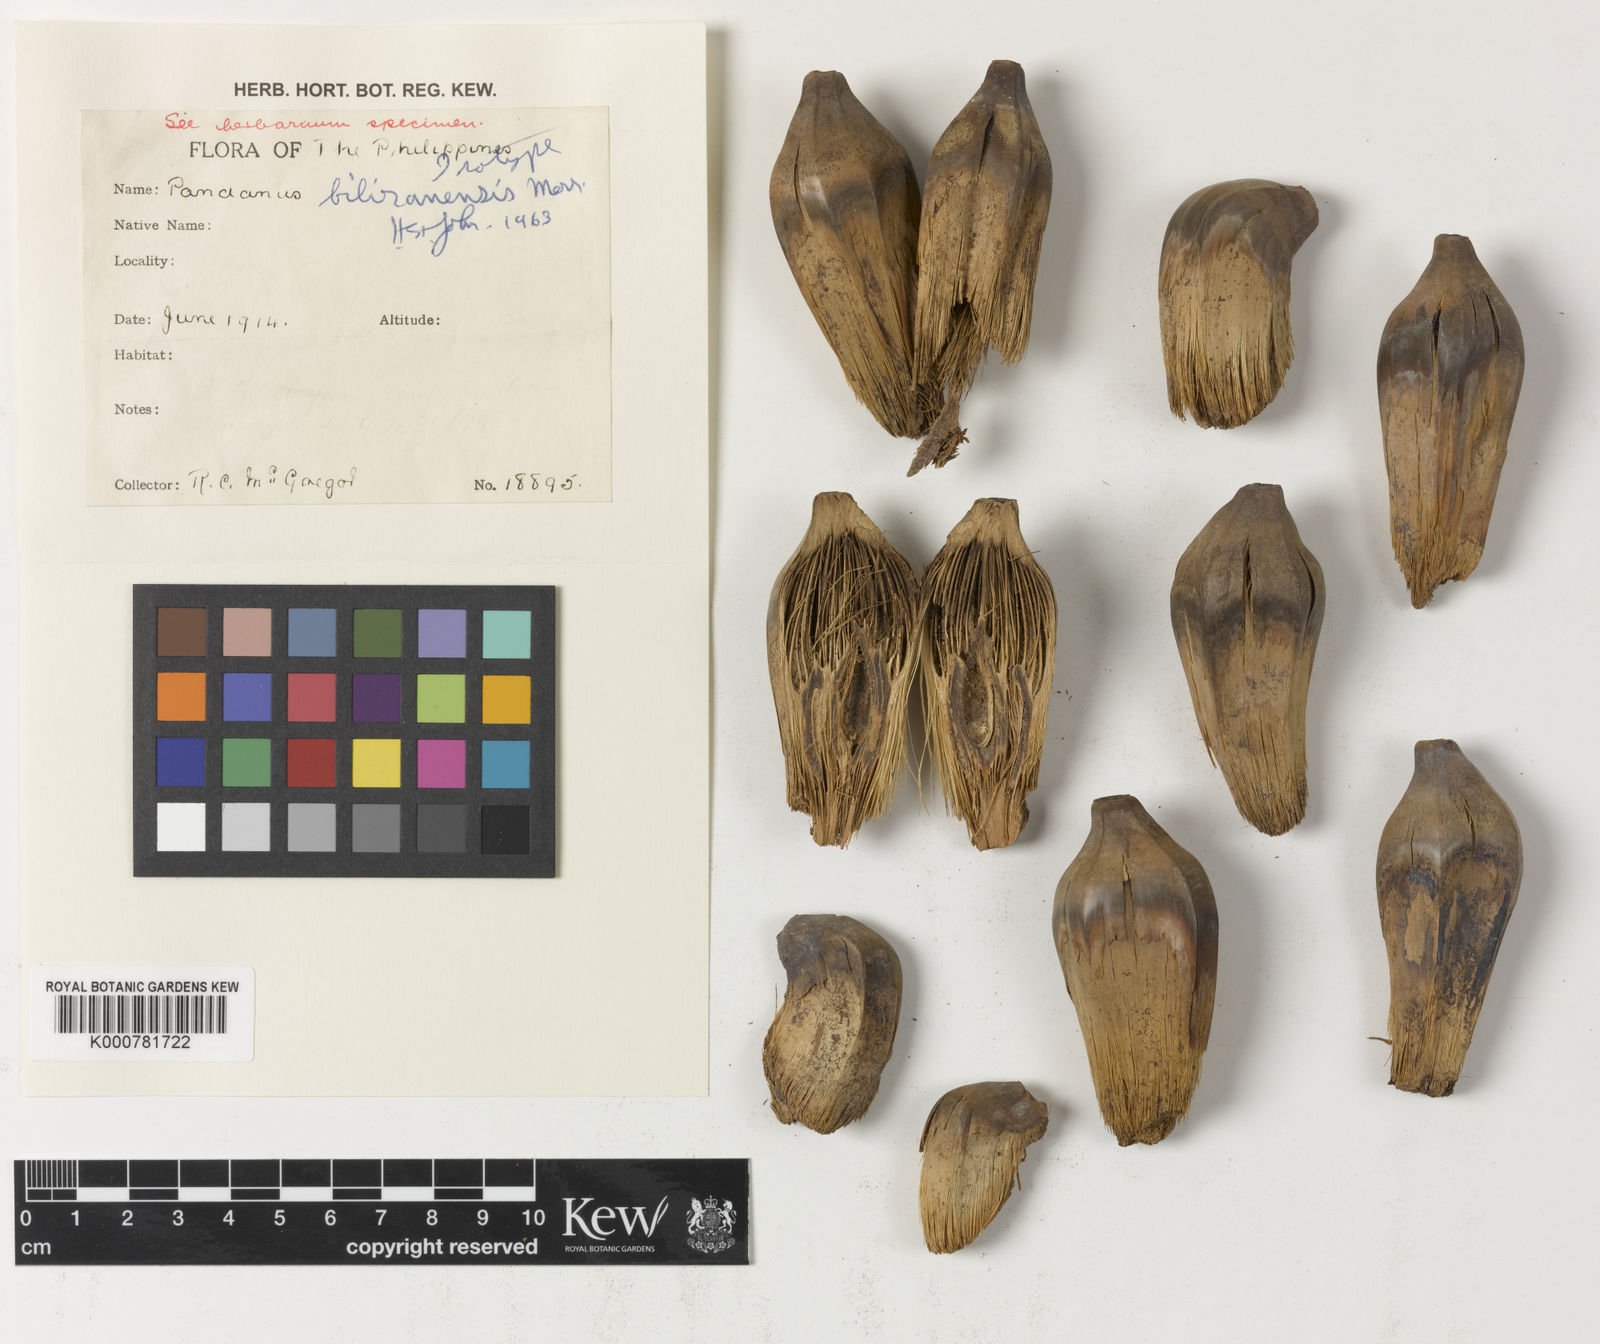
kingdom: Plantae
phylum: Tracheophyta
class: Liliopsida
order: Pandanales
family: Pandanaceae
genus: Pandanus
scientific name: Pandanus biliranensis
